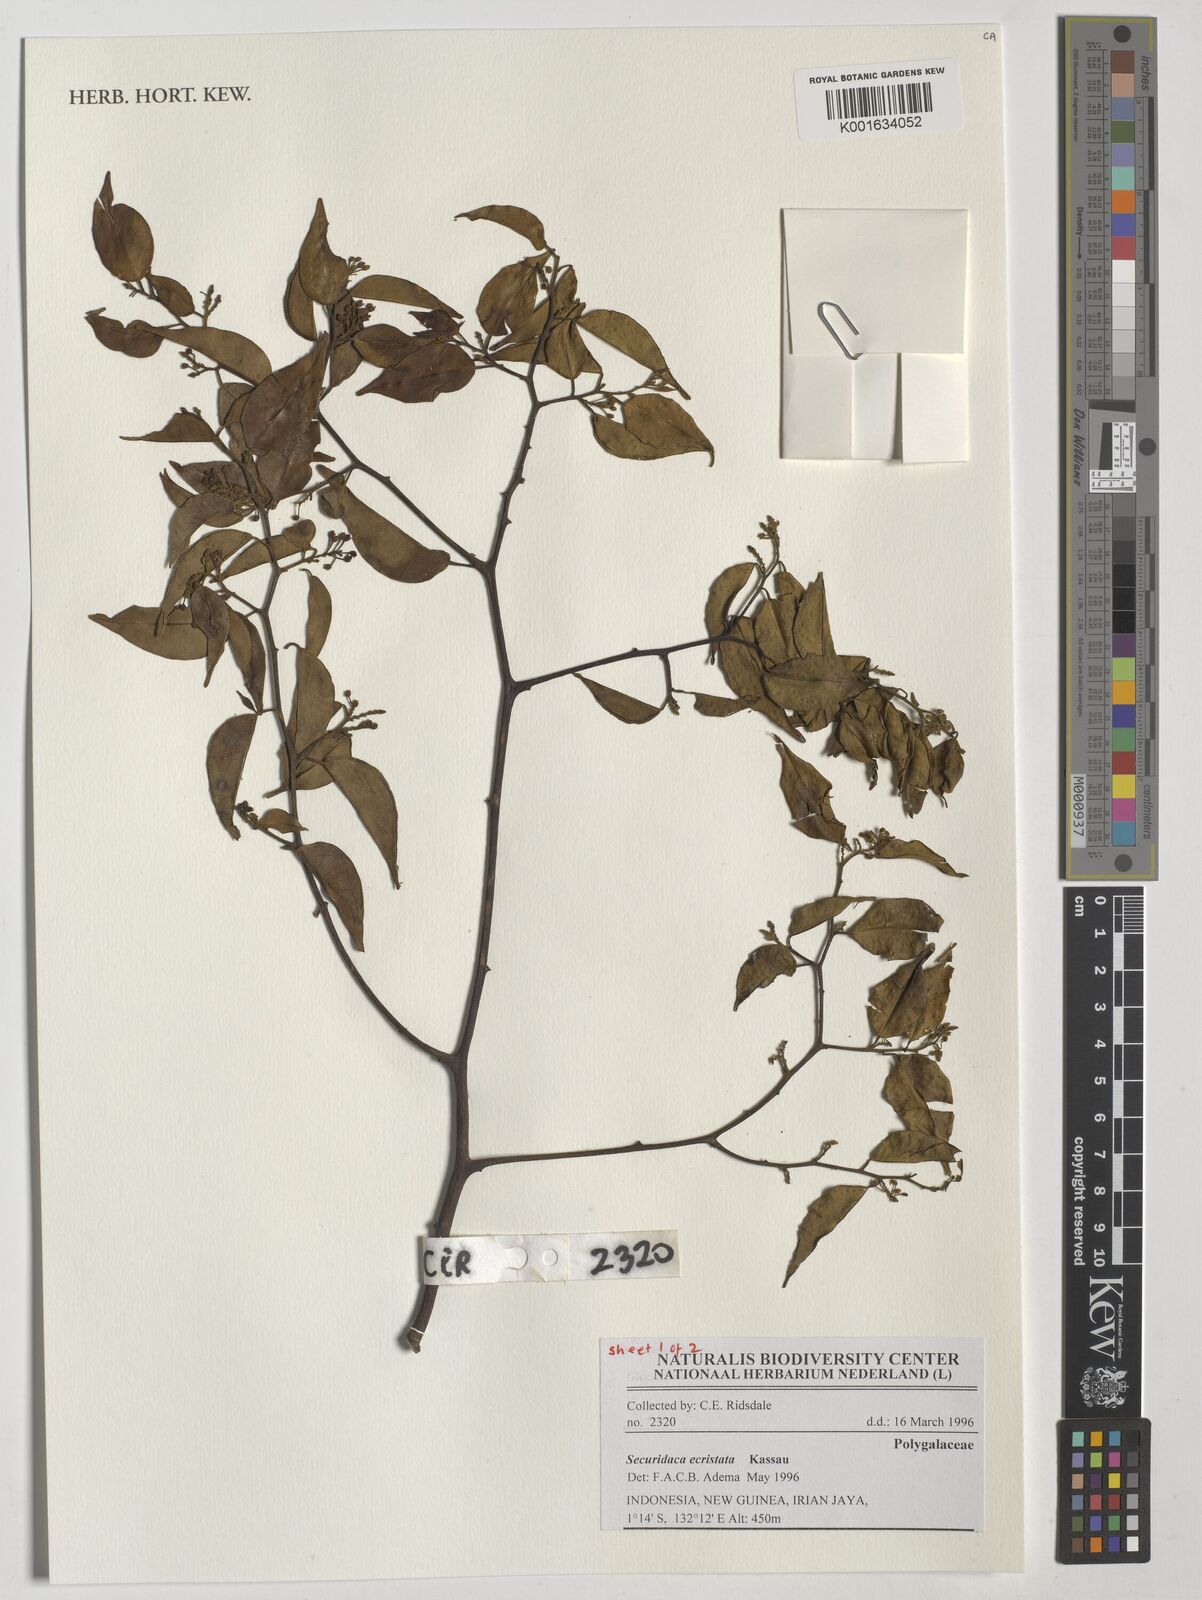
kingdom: Plantae
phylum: Tracheophyta
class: Magnoliopsida
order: Fabales
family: Polygalaceae
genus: Securidaca
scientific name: Securidaca inappendiculata
